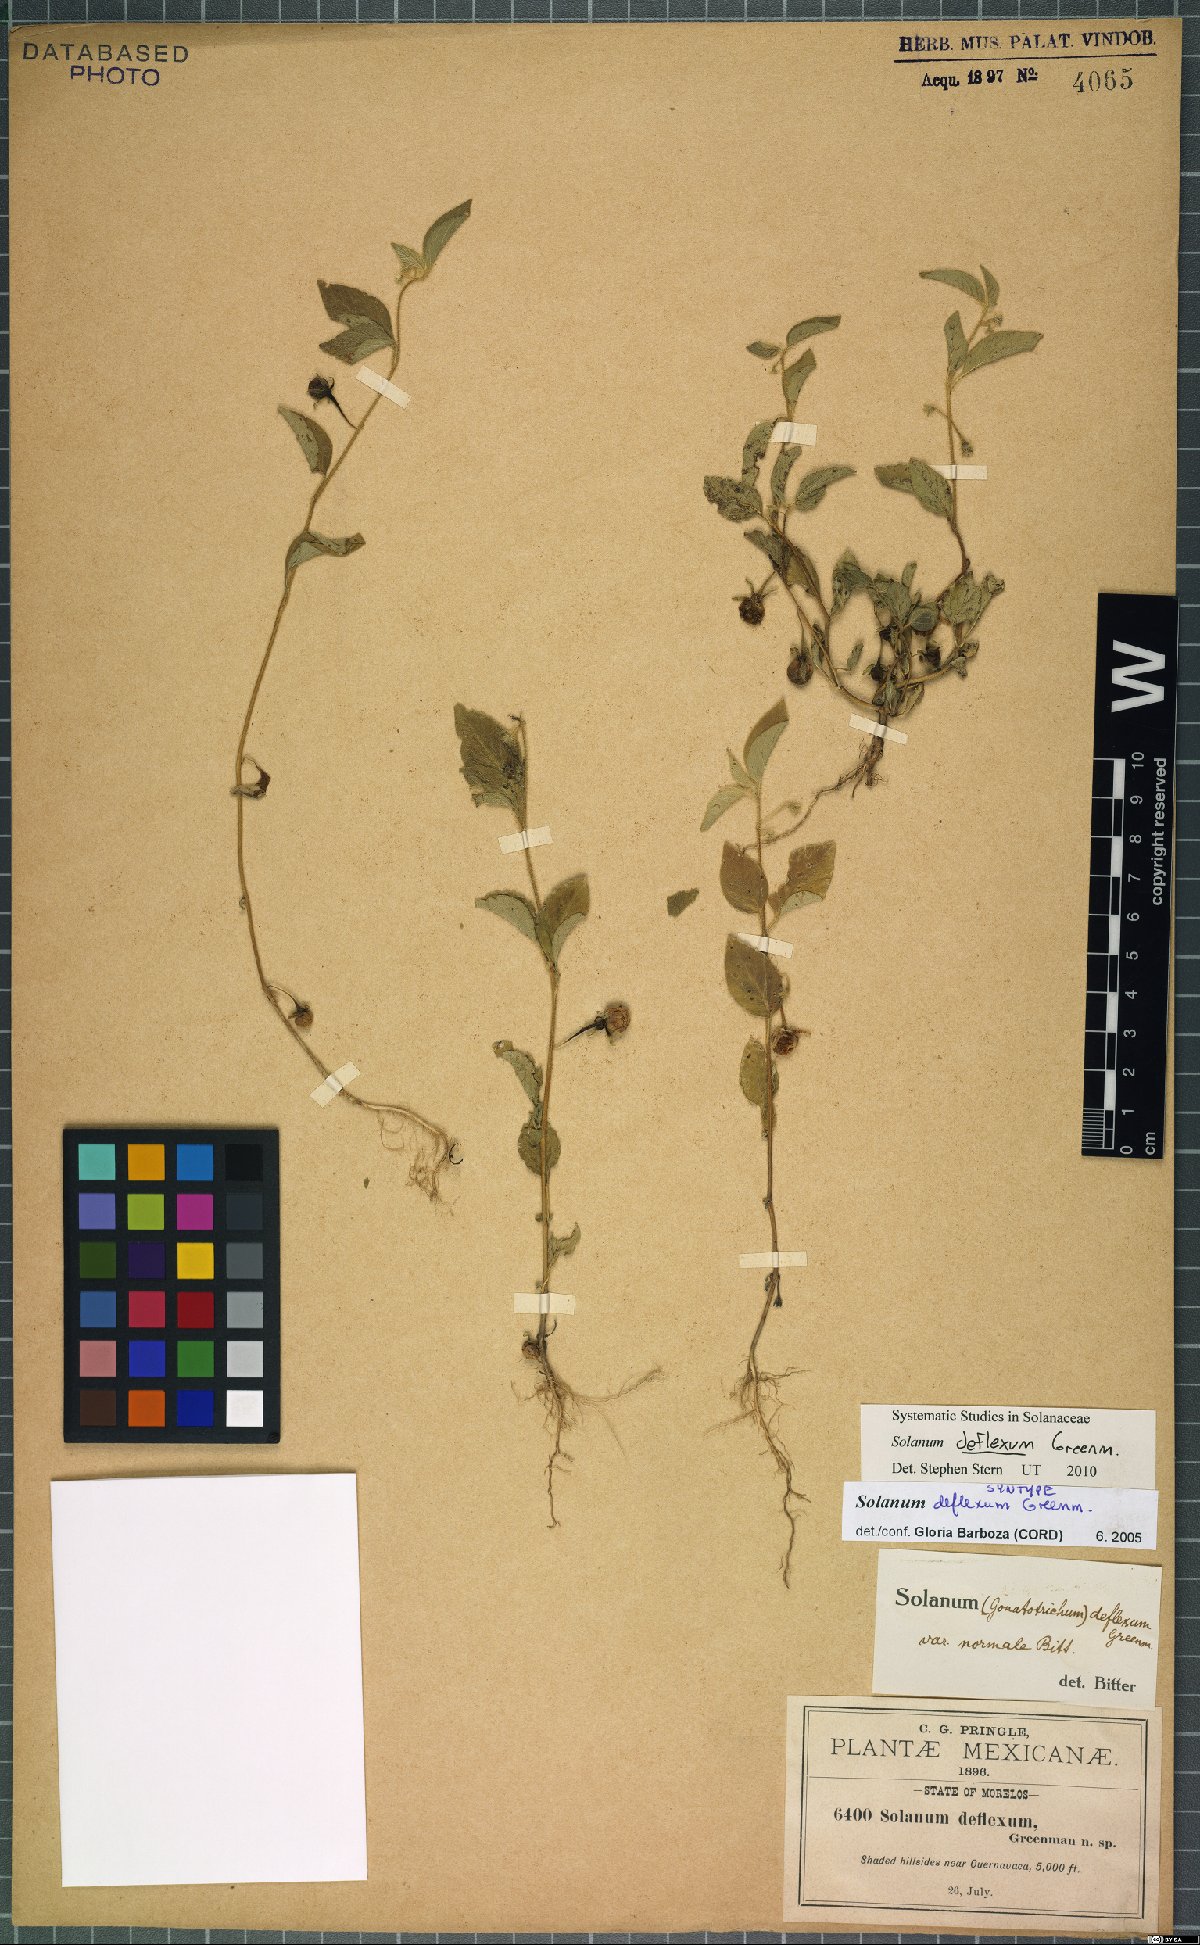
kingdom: Plantae
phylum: Tracheophyta
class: Magnoliopsida
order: Solanales
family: Solanaceae
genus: Solanum
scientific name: Solanum deflexum
